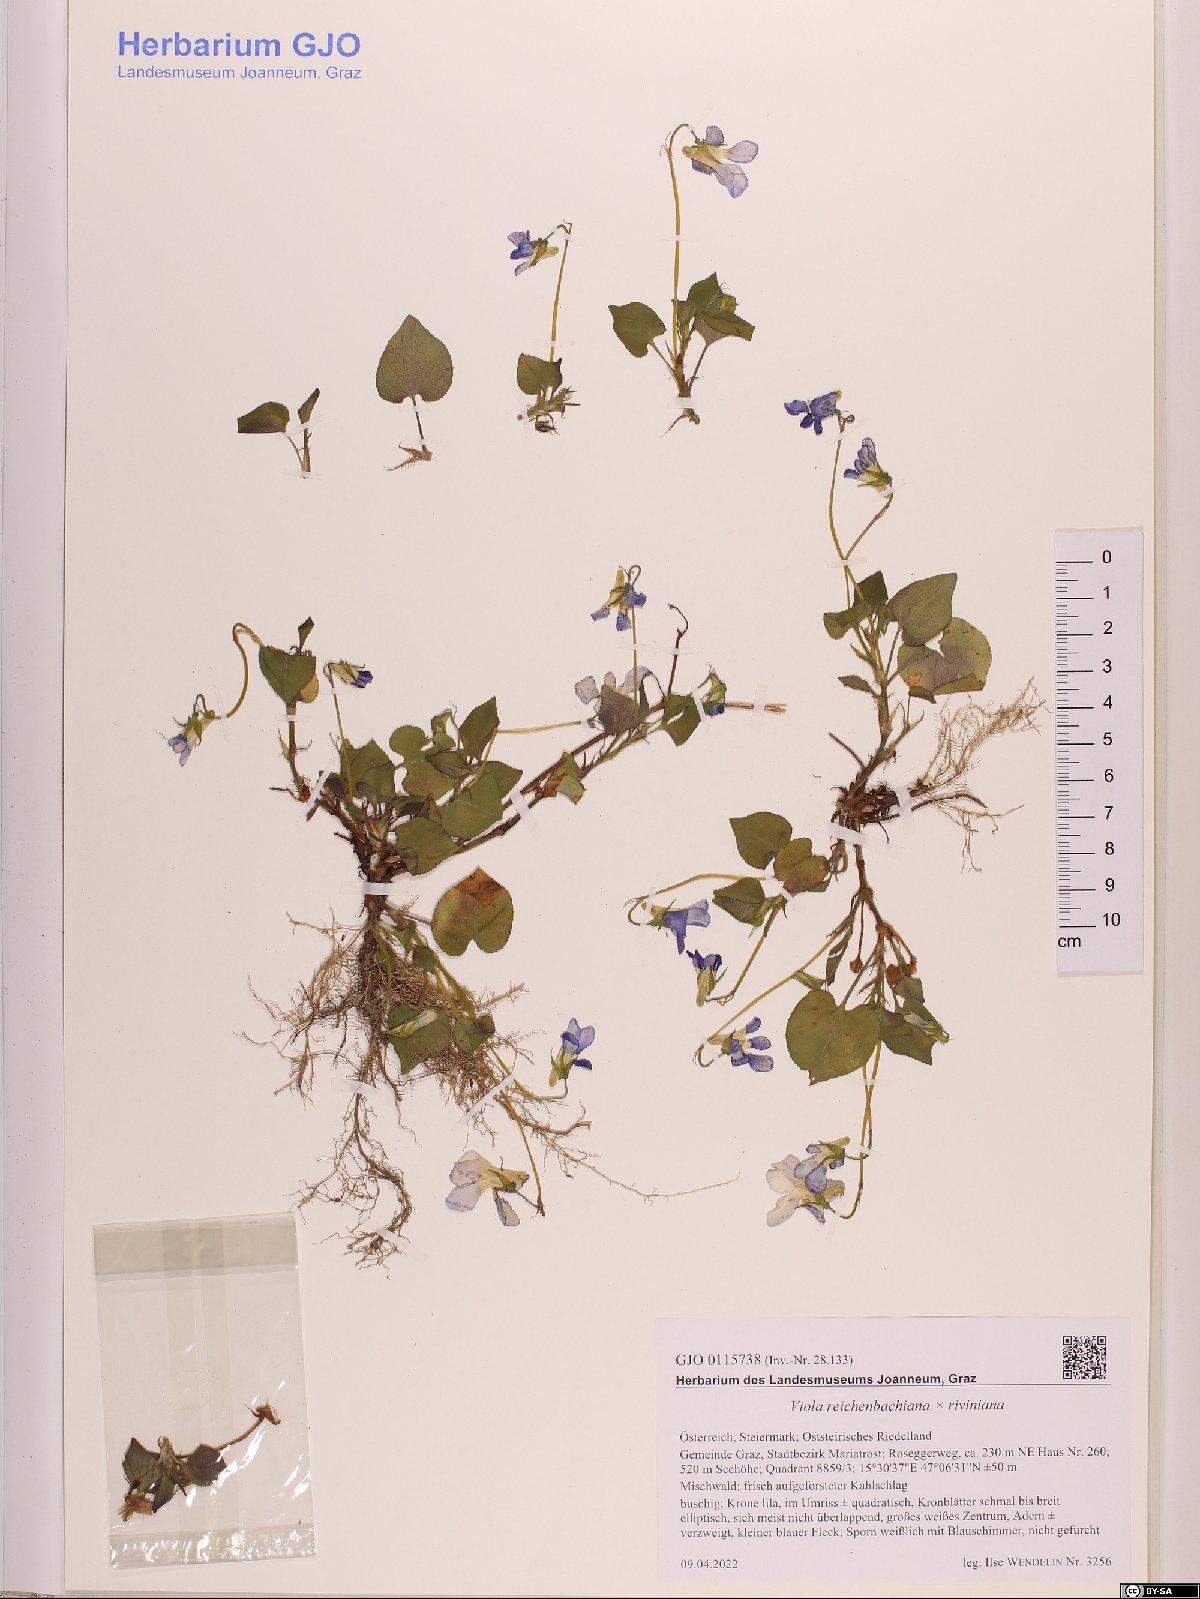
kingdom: Plantae
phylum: Tracheophyta
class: Magnoliopsida
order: Malpighiales
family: Violaceae
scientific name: Violaceae
